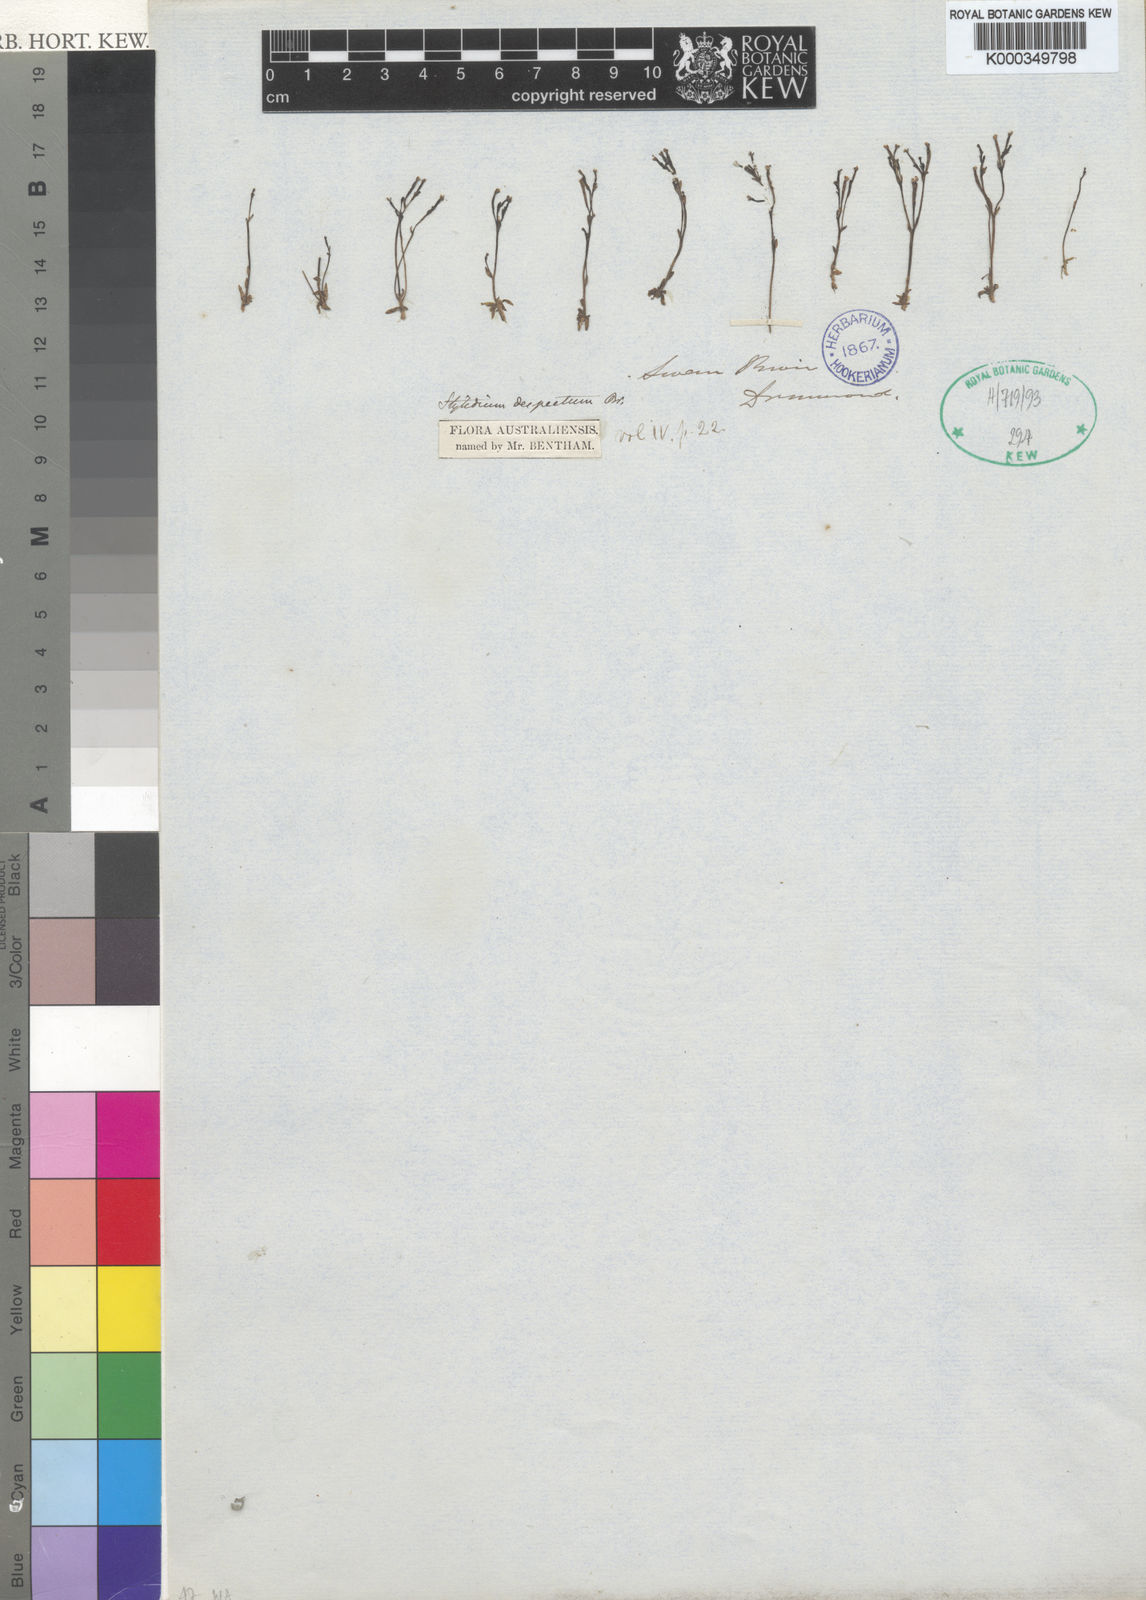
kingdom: Plantae
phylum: Tracheophyta
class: Magnoliopsida
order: Asterales
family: Stylidiaceae
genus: Stylidium
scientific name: Stylidium despectum
